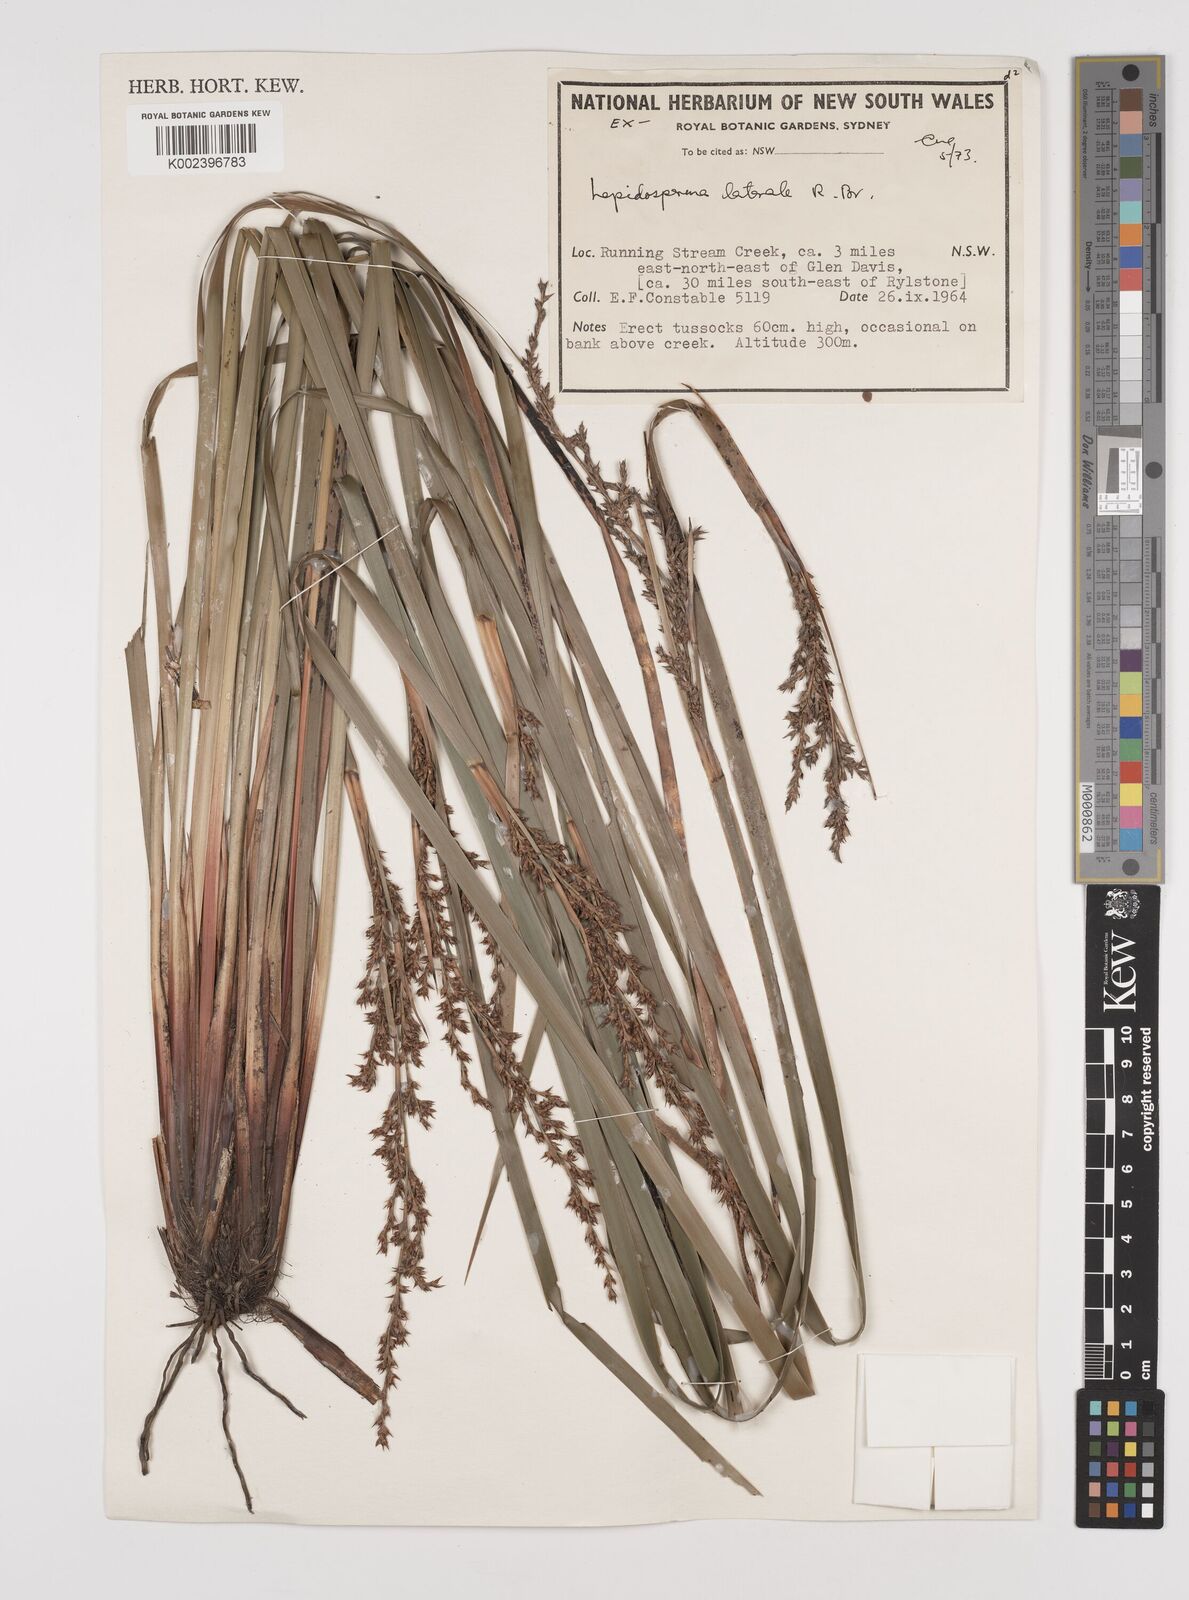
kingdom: Plantae
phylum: Tracheophyta
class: Liliopsida
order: Poales
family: Cyperaceae
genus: Lepidosperma
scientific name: Lepidosperma laterale
